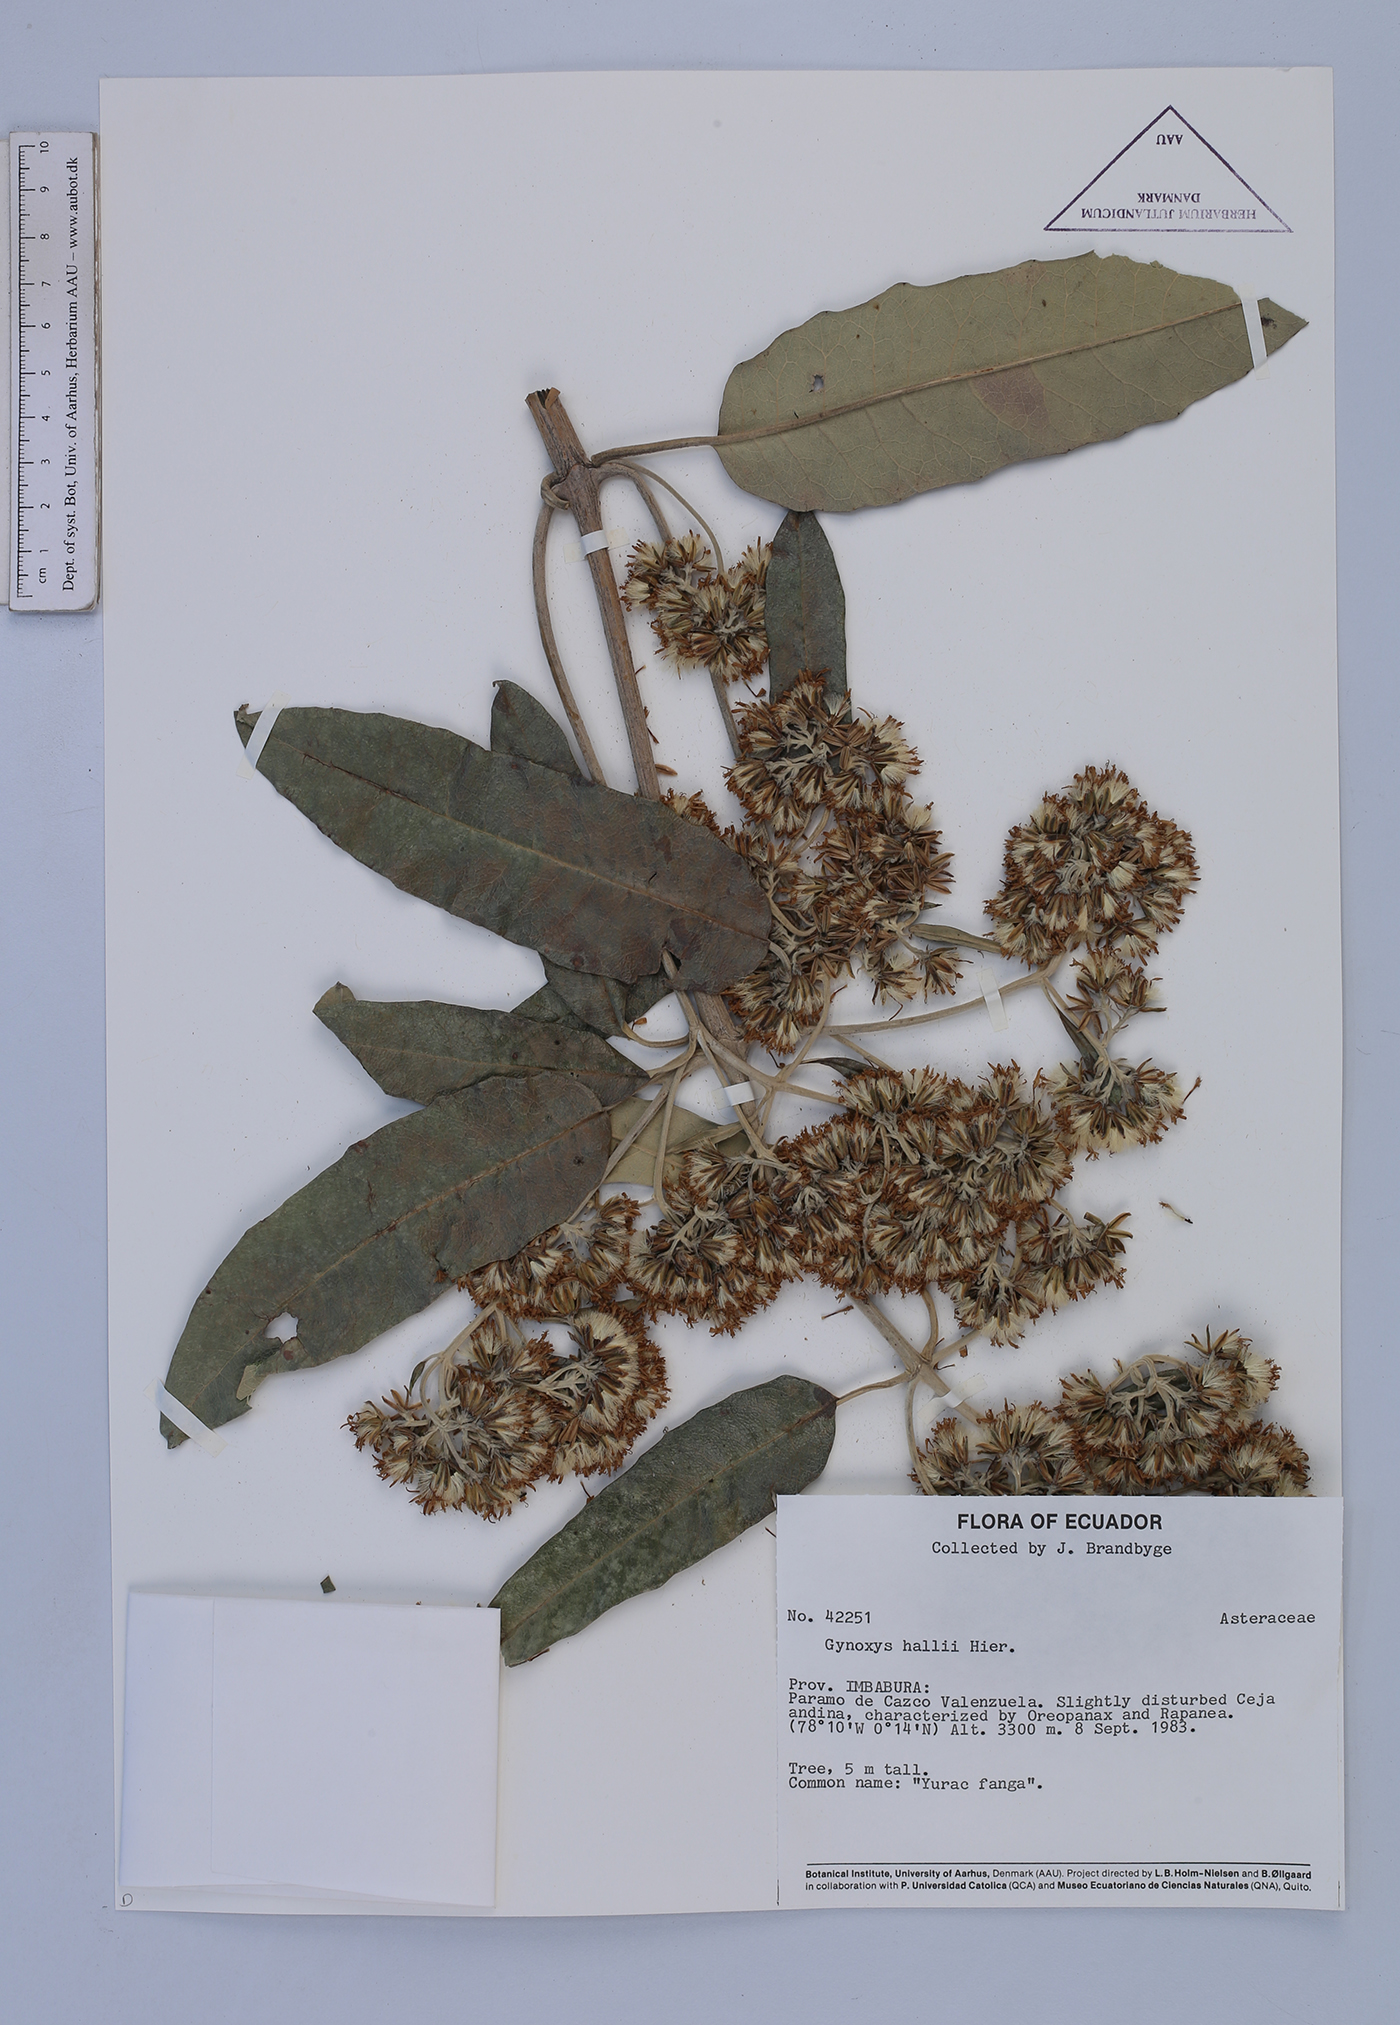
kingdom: Plantae
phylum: Tracheophyta
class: Magnoliopsida
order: Asterales
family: Asteraceae
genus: Gynoxys
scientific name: Gynoxys hallii
